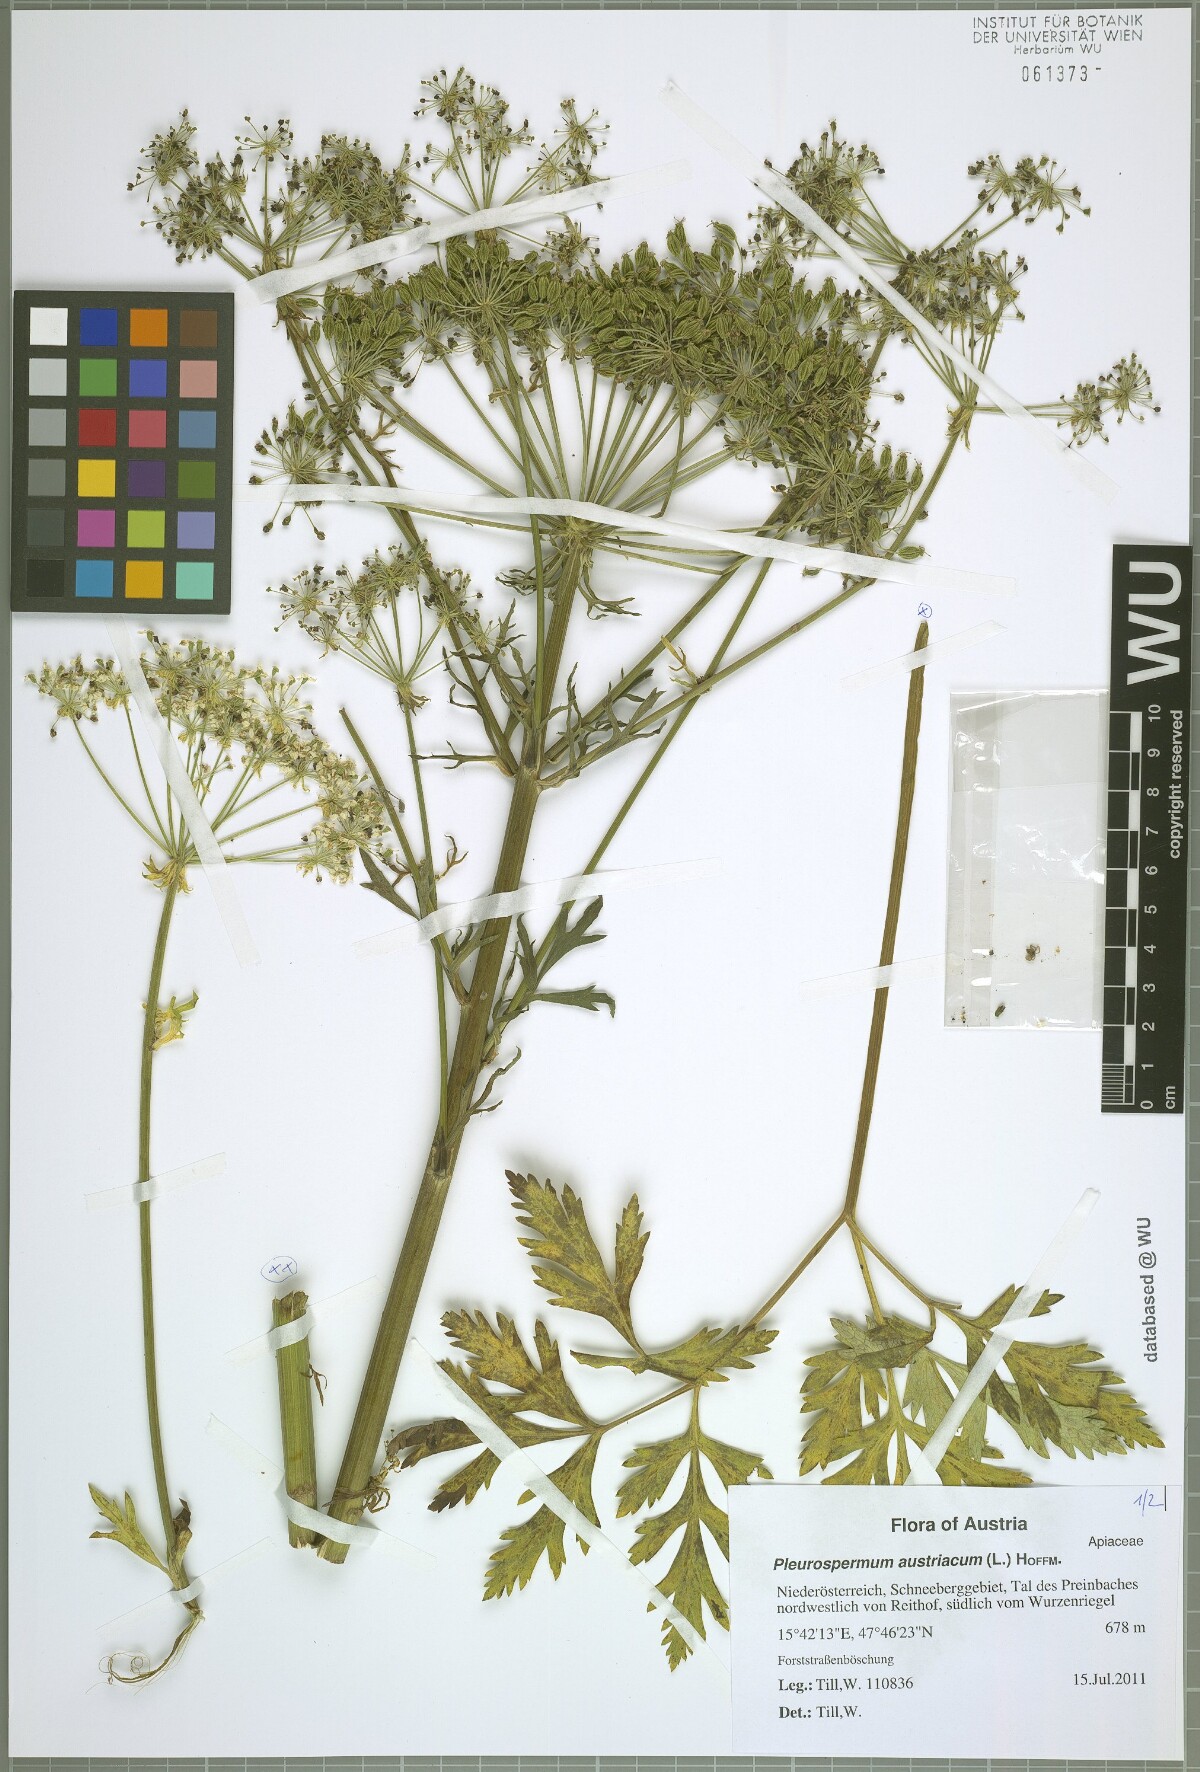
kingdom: Plantae
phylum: Tracheophyta
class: Magnoliopsida
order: Apiales
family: Apiaceae
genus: Pleurospermum
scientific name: Pleurospermum austriacum
